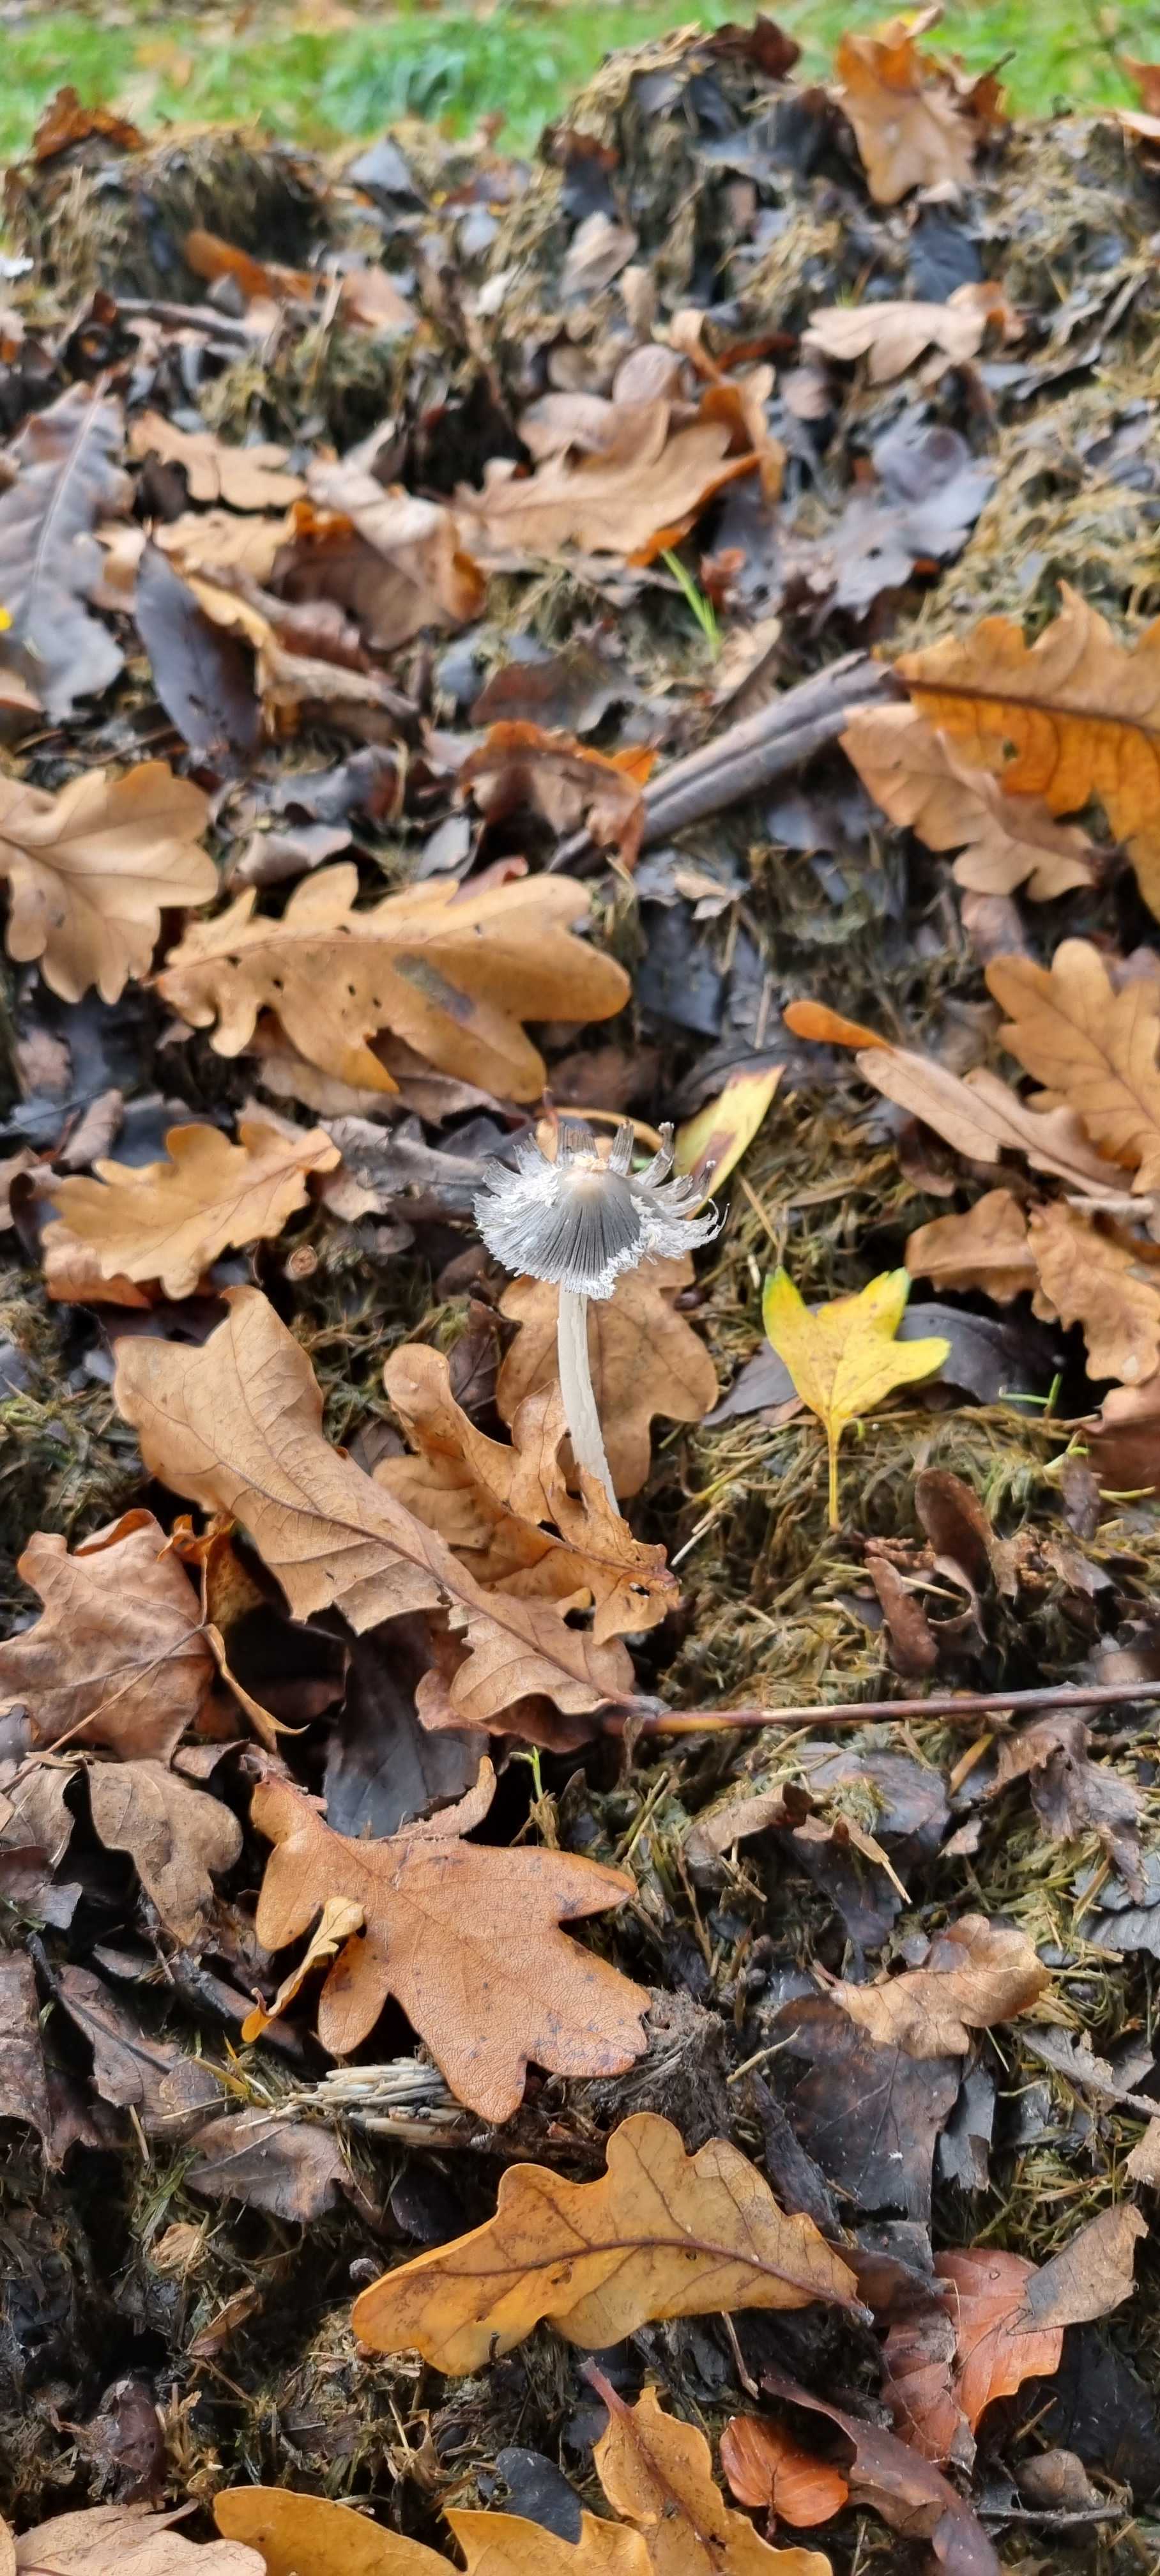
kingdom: Fungi
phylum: Basidiomycota
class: Agaricomycetes
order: Agaricales
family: Psathyrellaceae
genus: Coprinopsis
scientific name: Coprinopsis lagopus
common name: dunstokket blækhat
